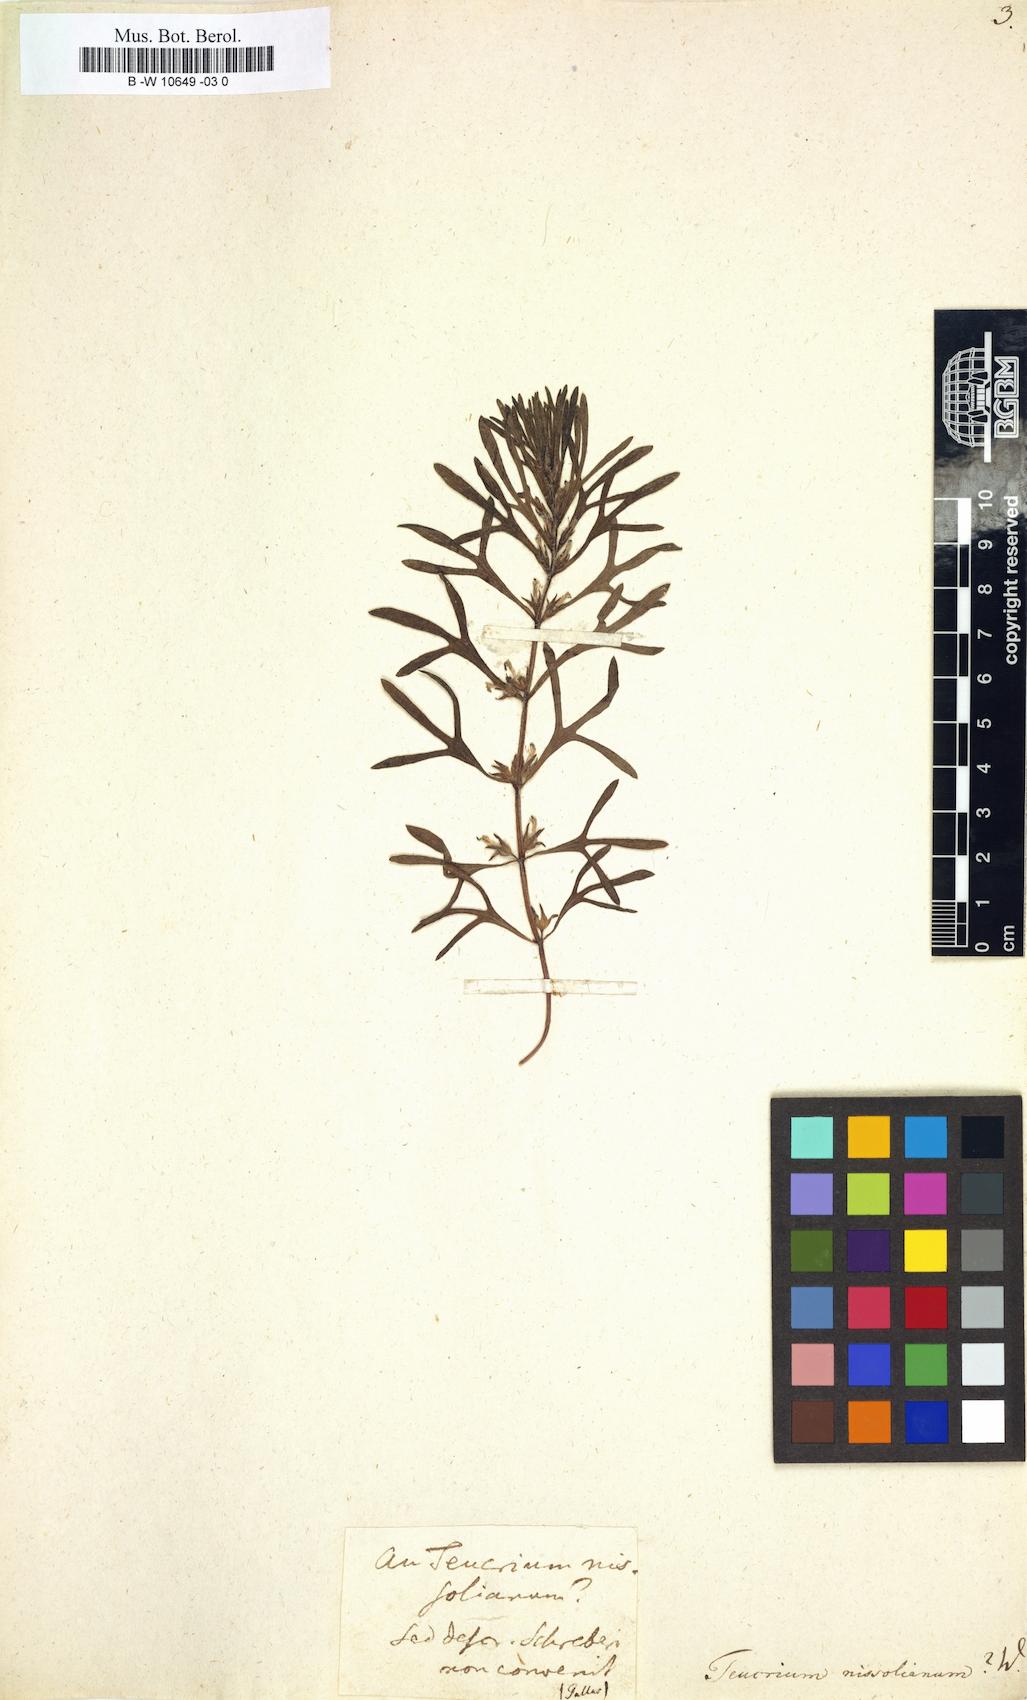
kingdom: Plantae
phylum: Tracheophyta
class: Magnoliopsida
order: Lamiales
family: Lamiaceae
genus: Teucrium
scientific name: Teucrium pseudochamaepitys
